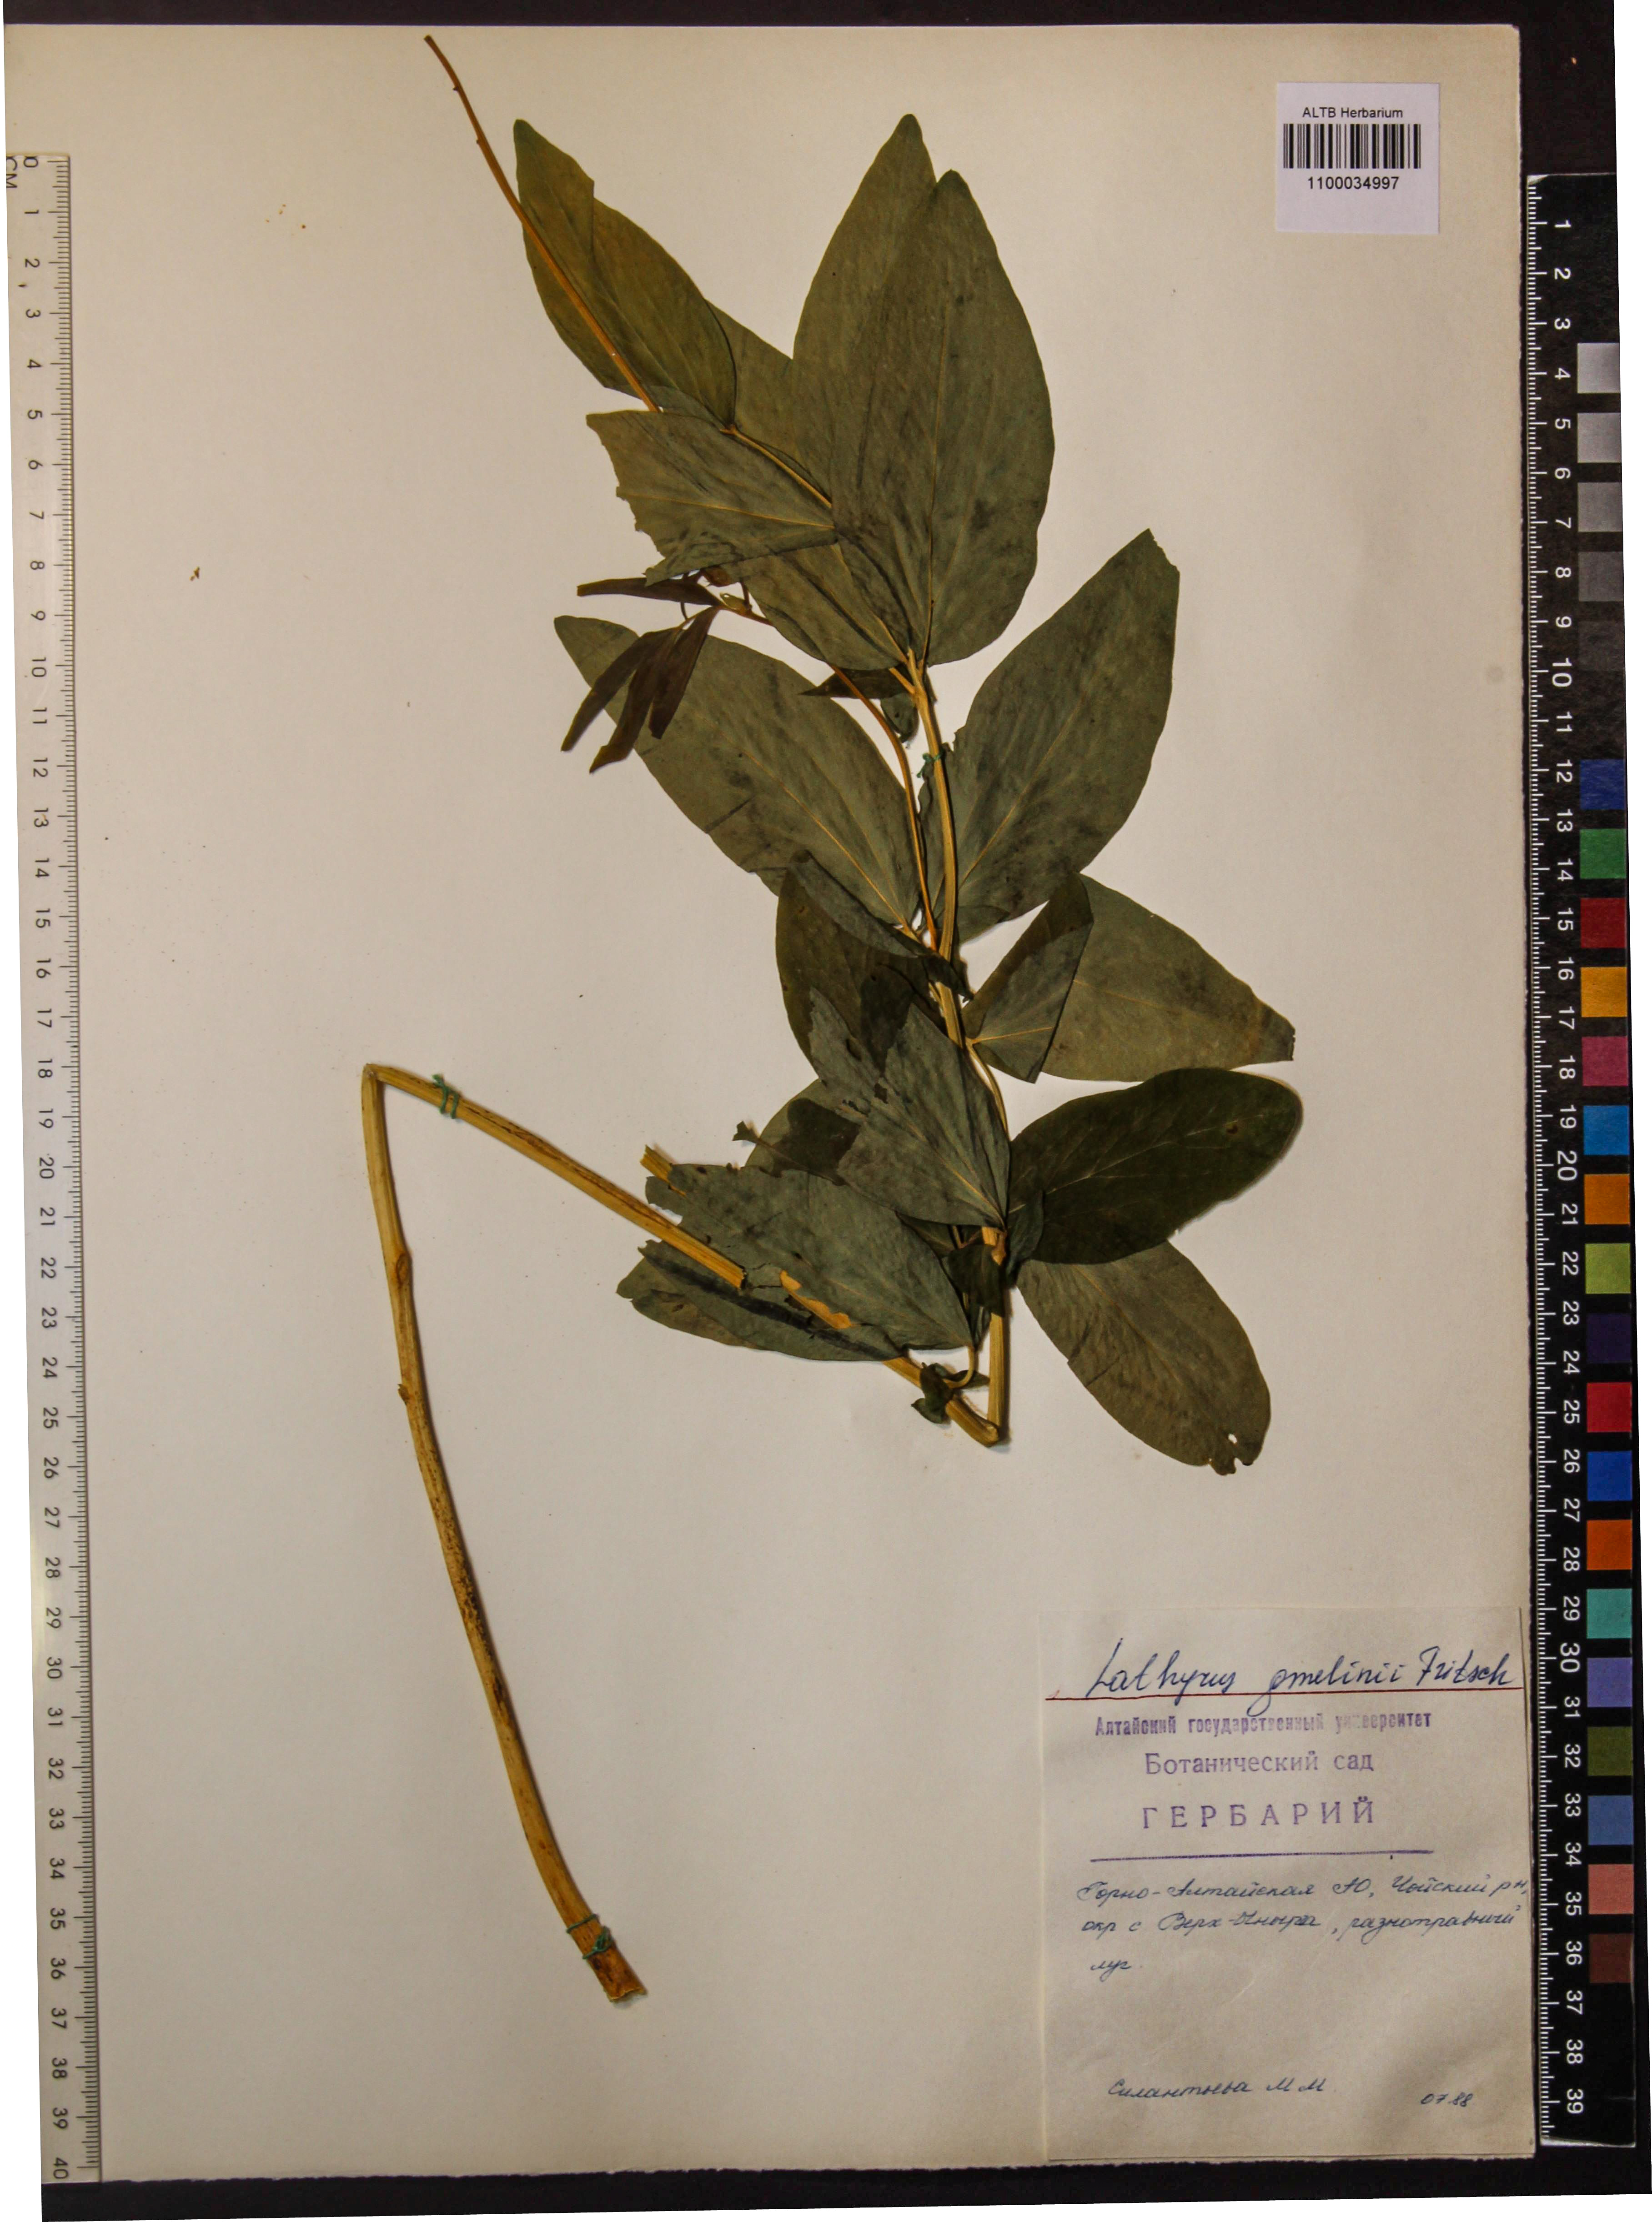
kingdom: Plantae
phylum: Tracheophyta
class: Magnoliopsida
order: Fabales
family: Fabaceae
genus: Lathyrus
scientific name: Lathyrus gmelinii
